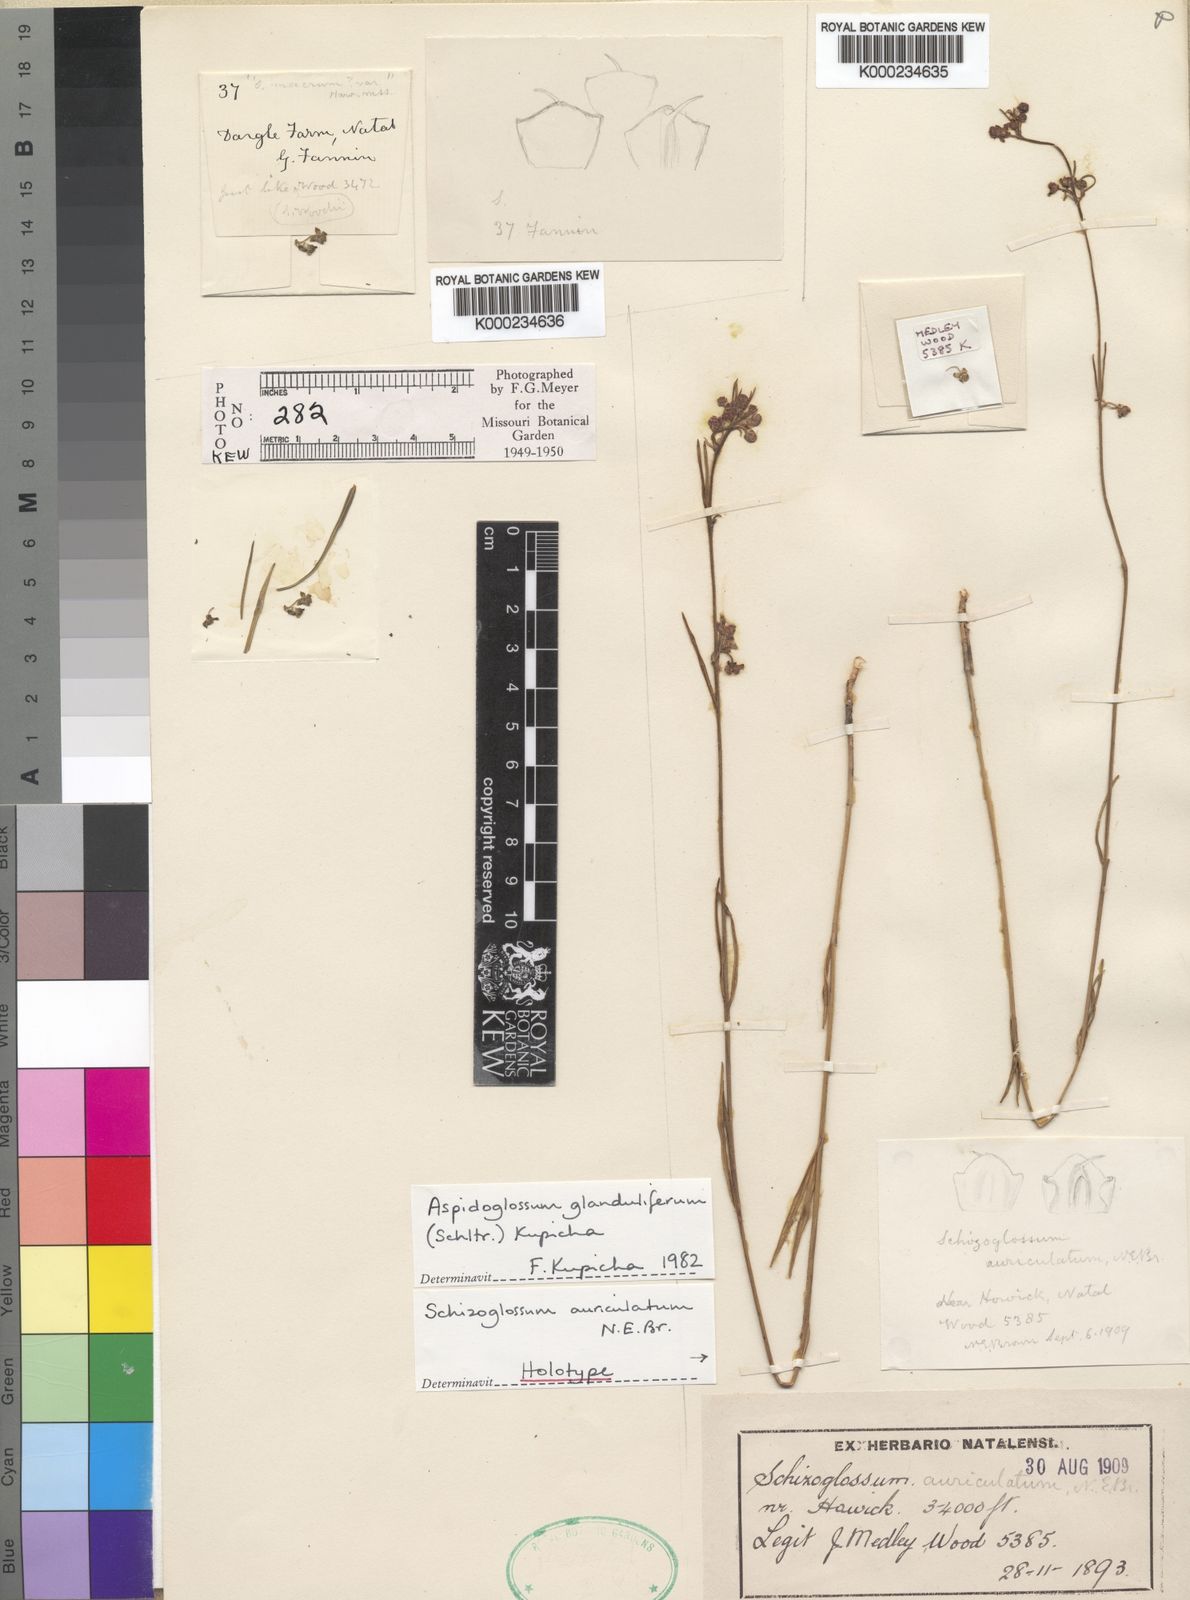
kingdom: Plantae
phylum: Tracheophyta
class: Magnoliopsida
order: Gentianales
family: Apocynaceae
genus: Aspidoglossum
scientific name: Aspidoglossum glanduliferum
